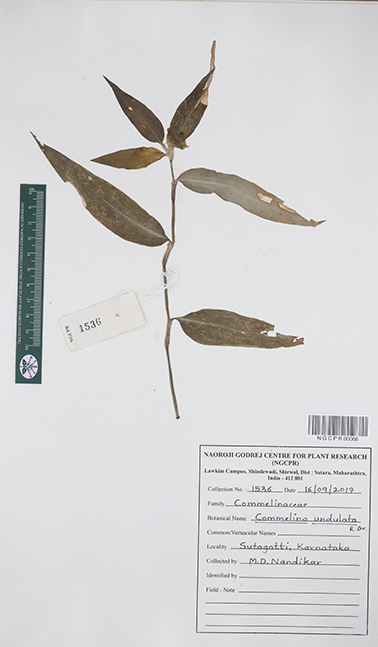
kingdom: Plantae
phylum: Tracheophyta
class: Liliopsida
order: Commelinales
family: Commelinaceae
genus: Commelina
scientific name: Commelina undulata
